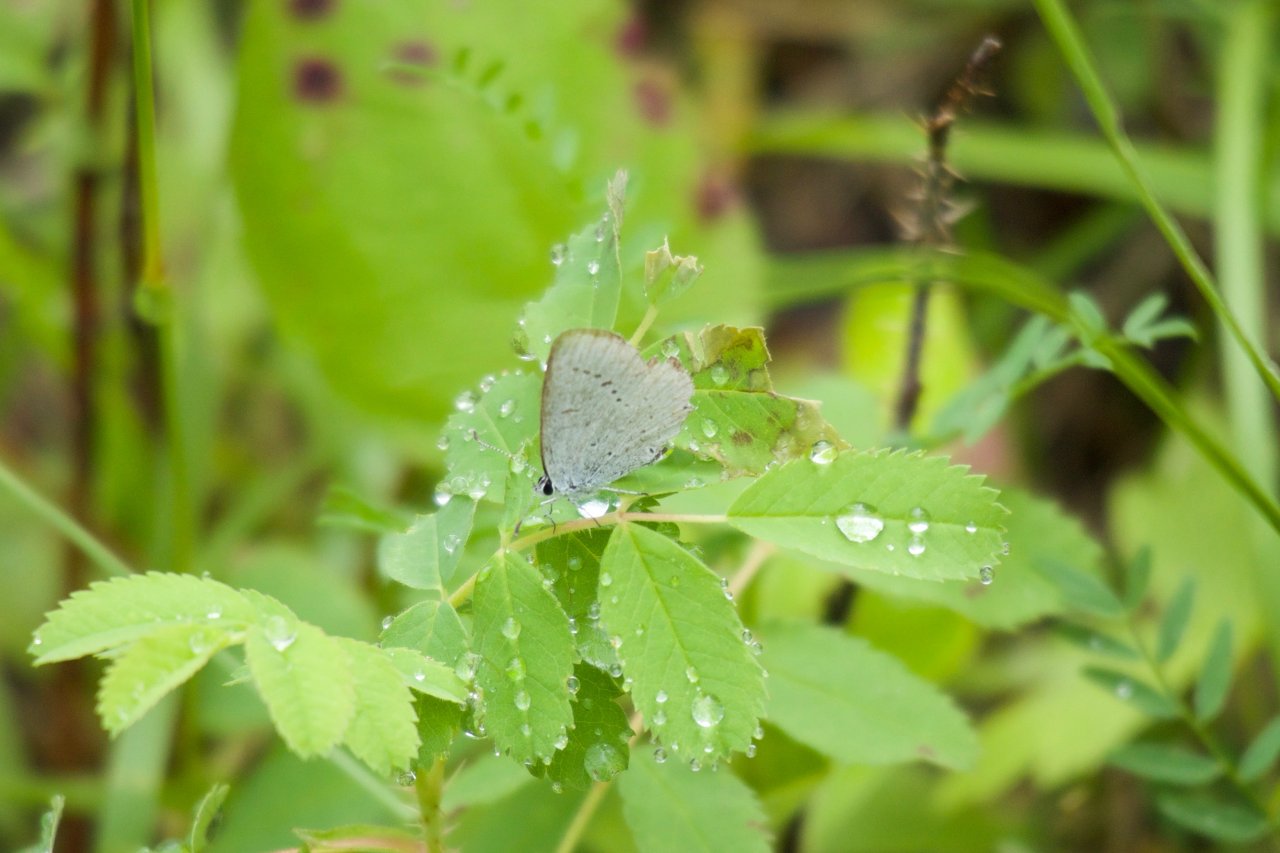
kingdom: Animalia
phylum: Arthropoda
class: Insecta
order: Lepidoptera
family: Lycaenidae
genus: Elkalyce
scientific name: Elkalyce amyntula
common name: Western Tailed-Blue
